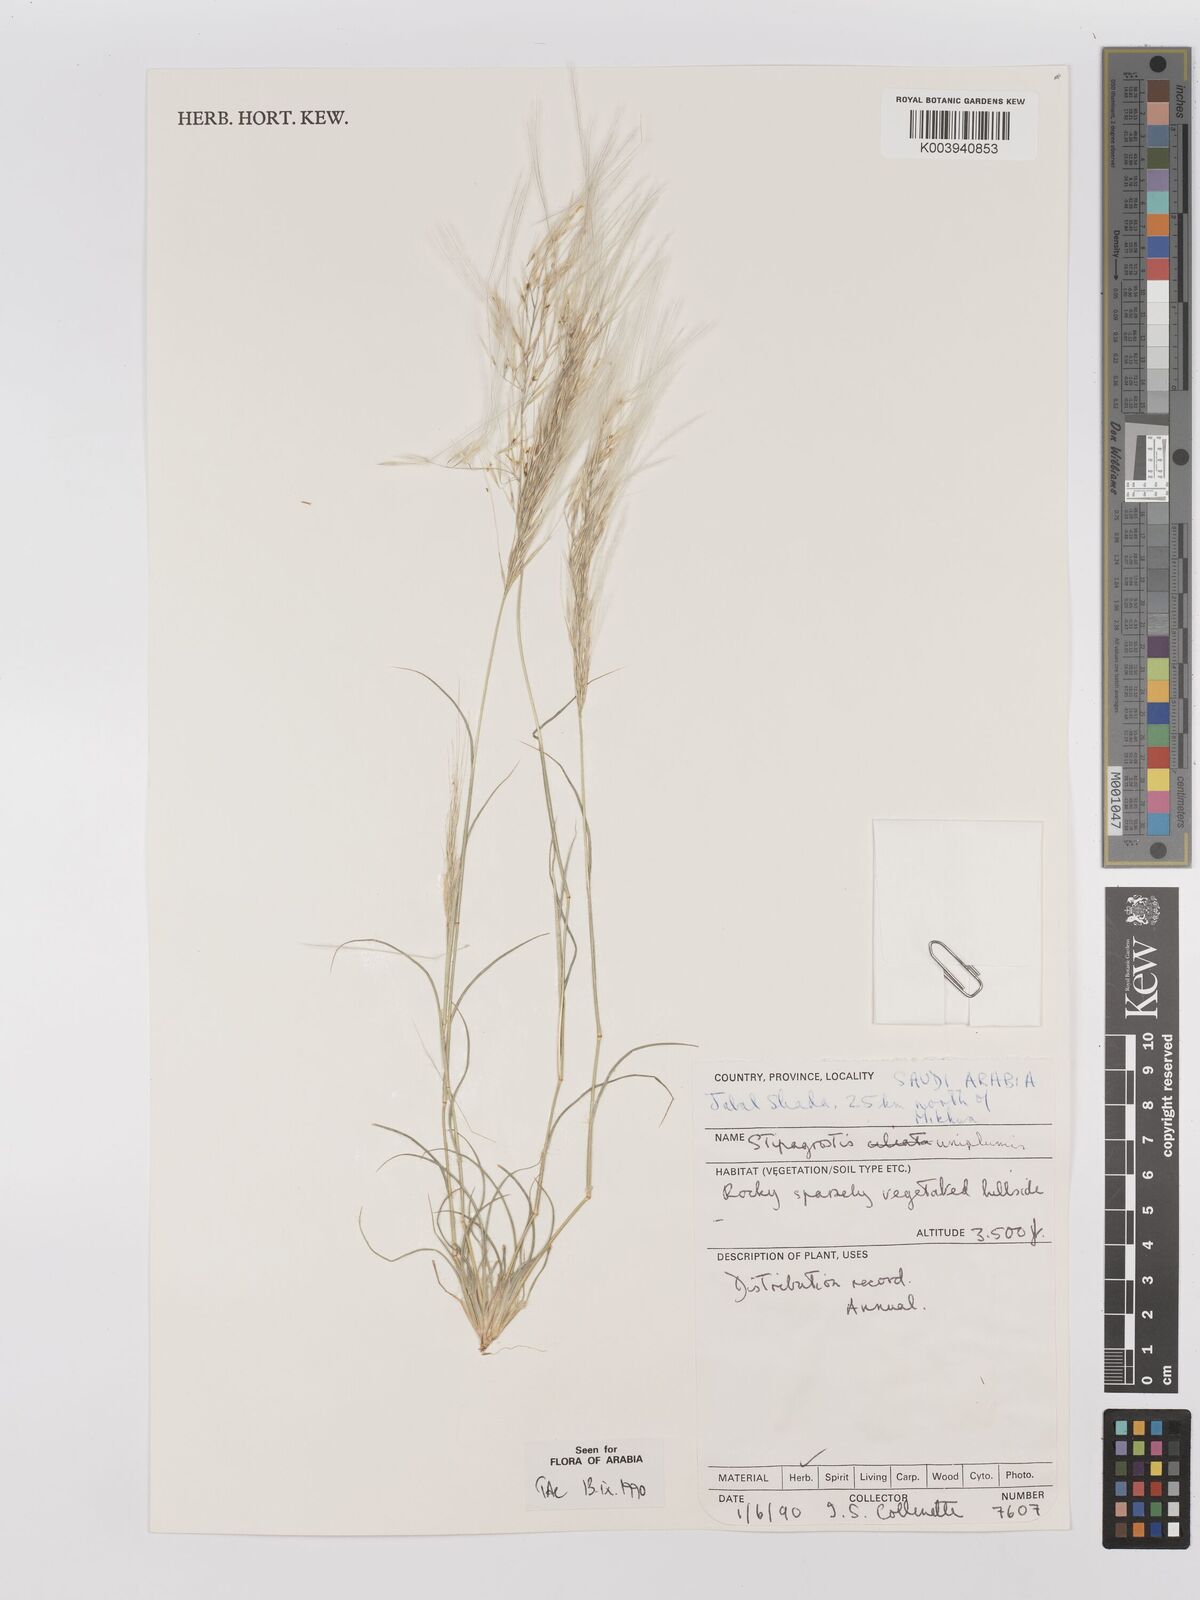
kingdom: Plantae
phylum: Tracheophyta
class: Liliopsida
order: Poales
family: Poaceae
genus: Stipagrostis
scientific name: Stipagrostis uniplumis
